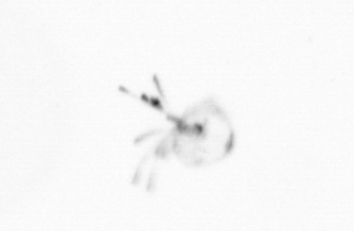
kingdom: Chromista
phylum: Ochrophyta
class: Bacillariophyceae
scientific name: Bacillariophyceae
